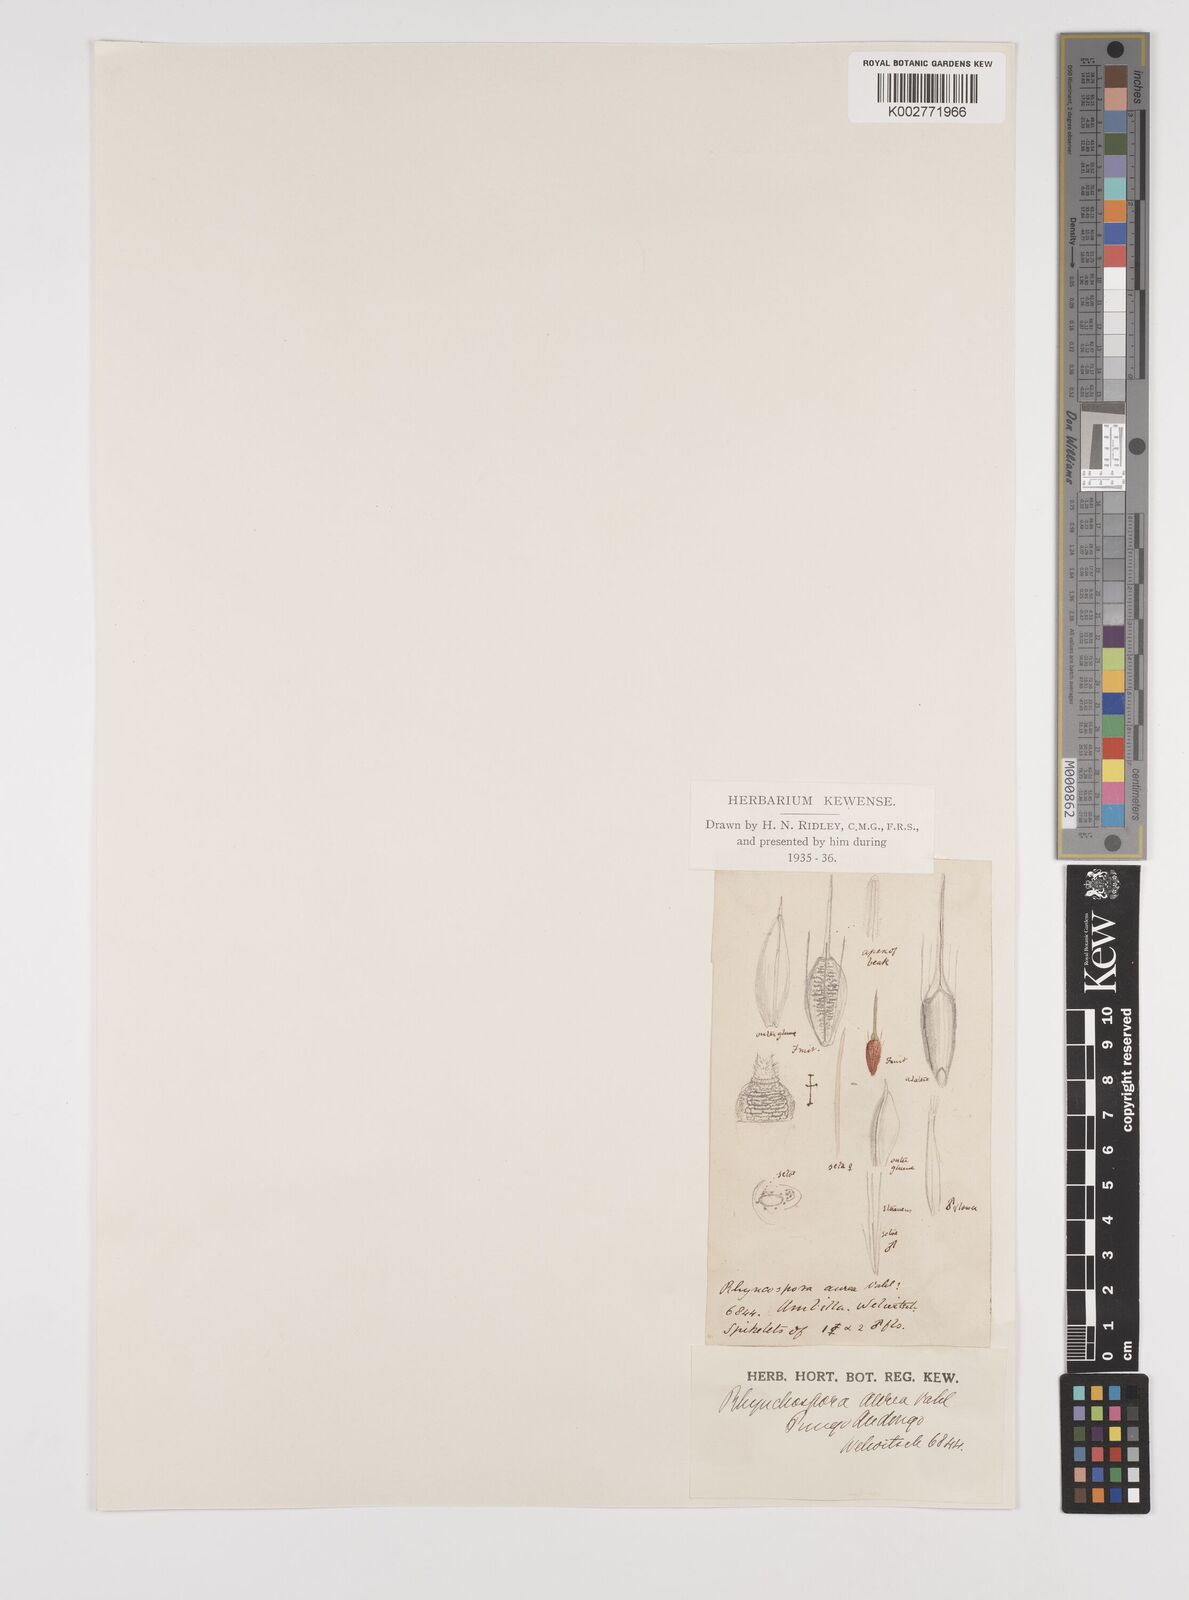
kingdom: Plantae
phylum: Tracheophyta
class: Liliopsida
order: Poales
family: Cyperaceae
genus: Rhynchospora
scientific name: Rhynchospora corymbosa
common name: Golden beak sedge
